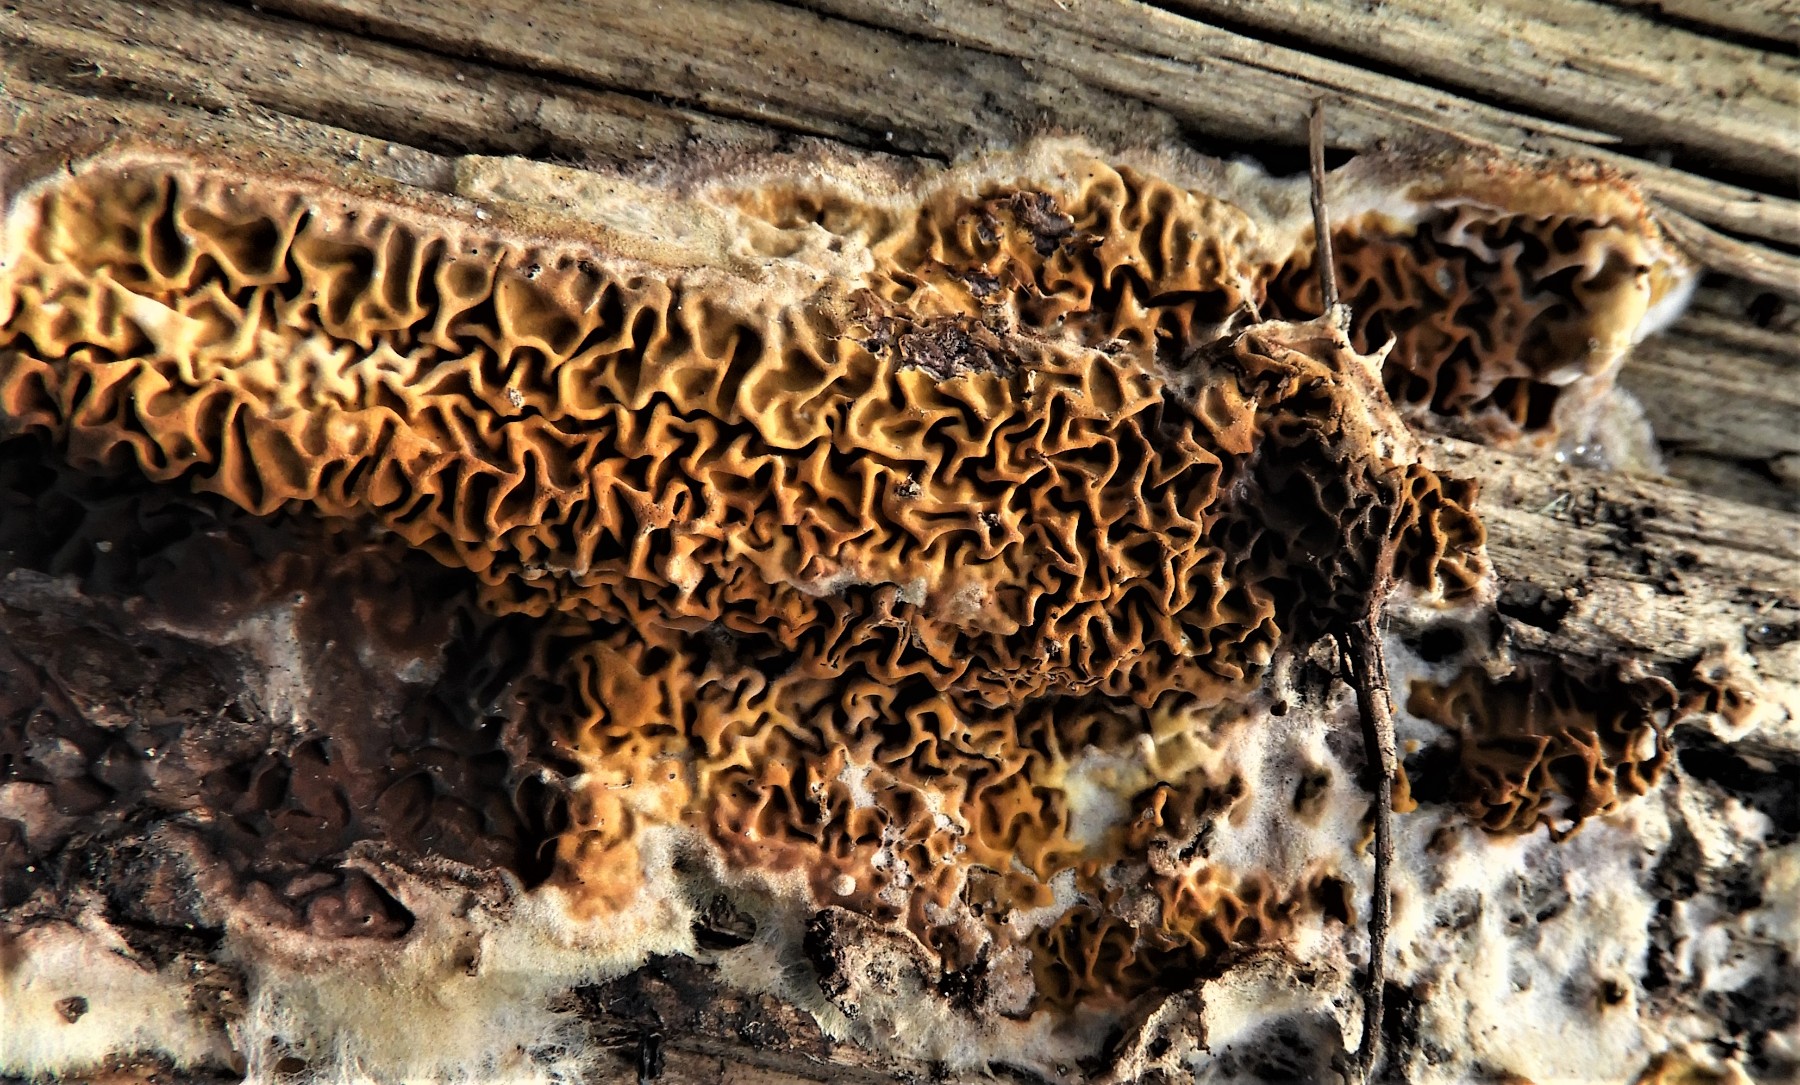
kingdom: Fungi
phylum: Basidiomycota
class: Agaricomycetes
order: Boletales
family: Serpulaceae
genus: Serpula
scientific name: Serpula himantioides
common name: tyndkødet hussvamp
